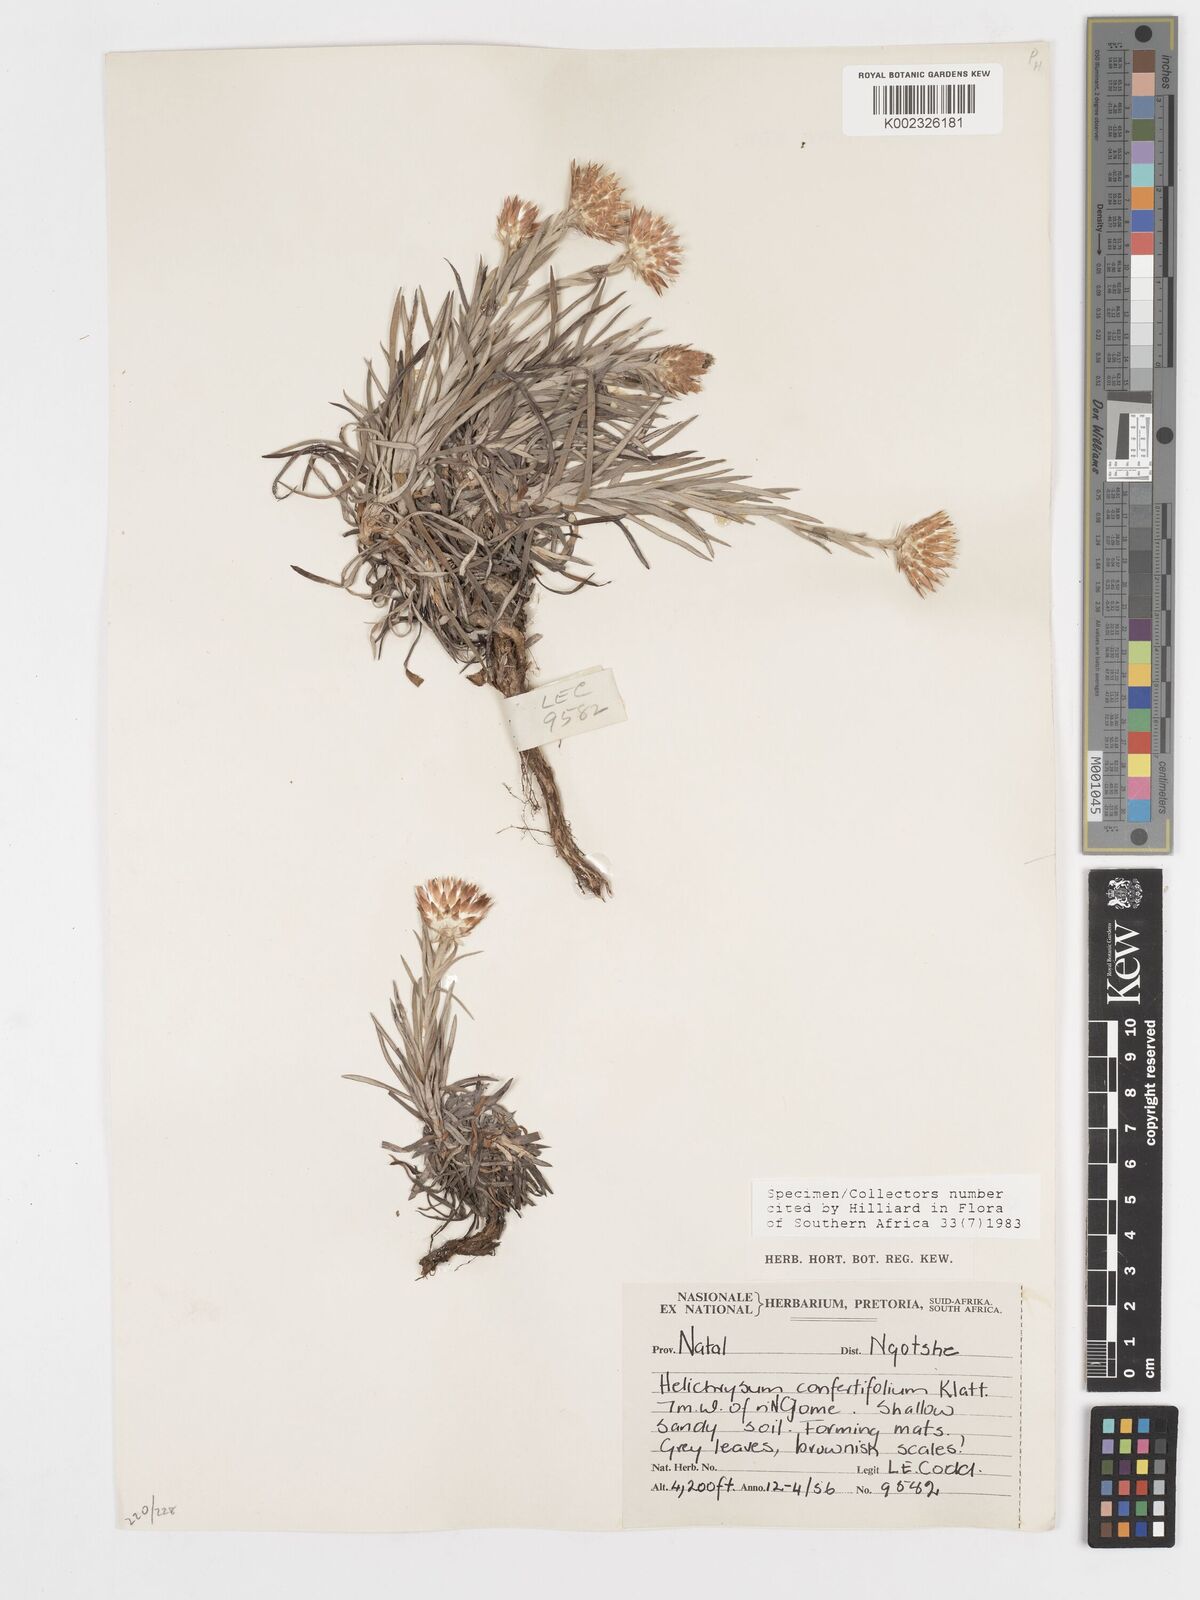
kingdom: Plantae
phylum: Tracheophyta
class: Magnoliopsida
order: Asterales
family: Asteraceae
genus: Helichrysum
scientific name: Helichrysum confertifolium
